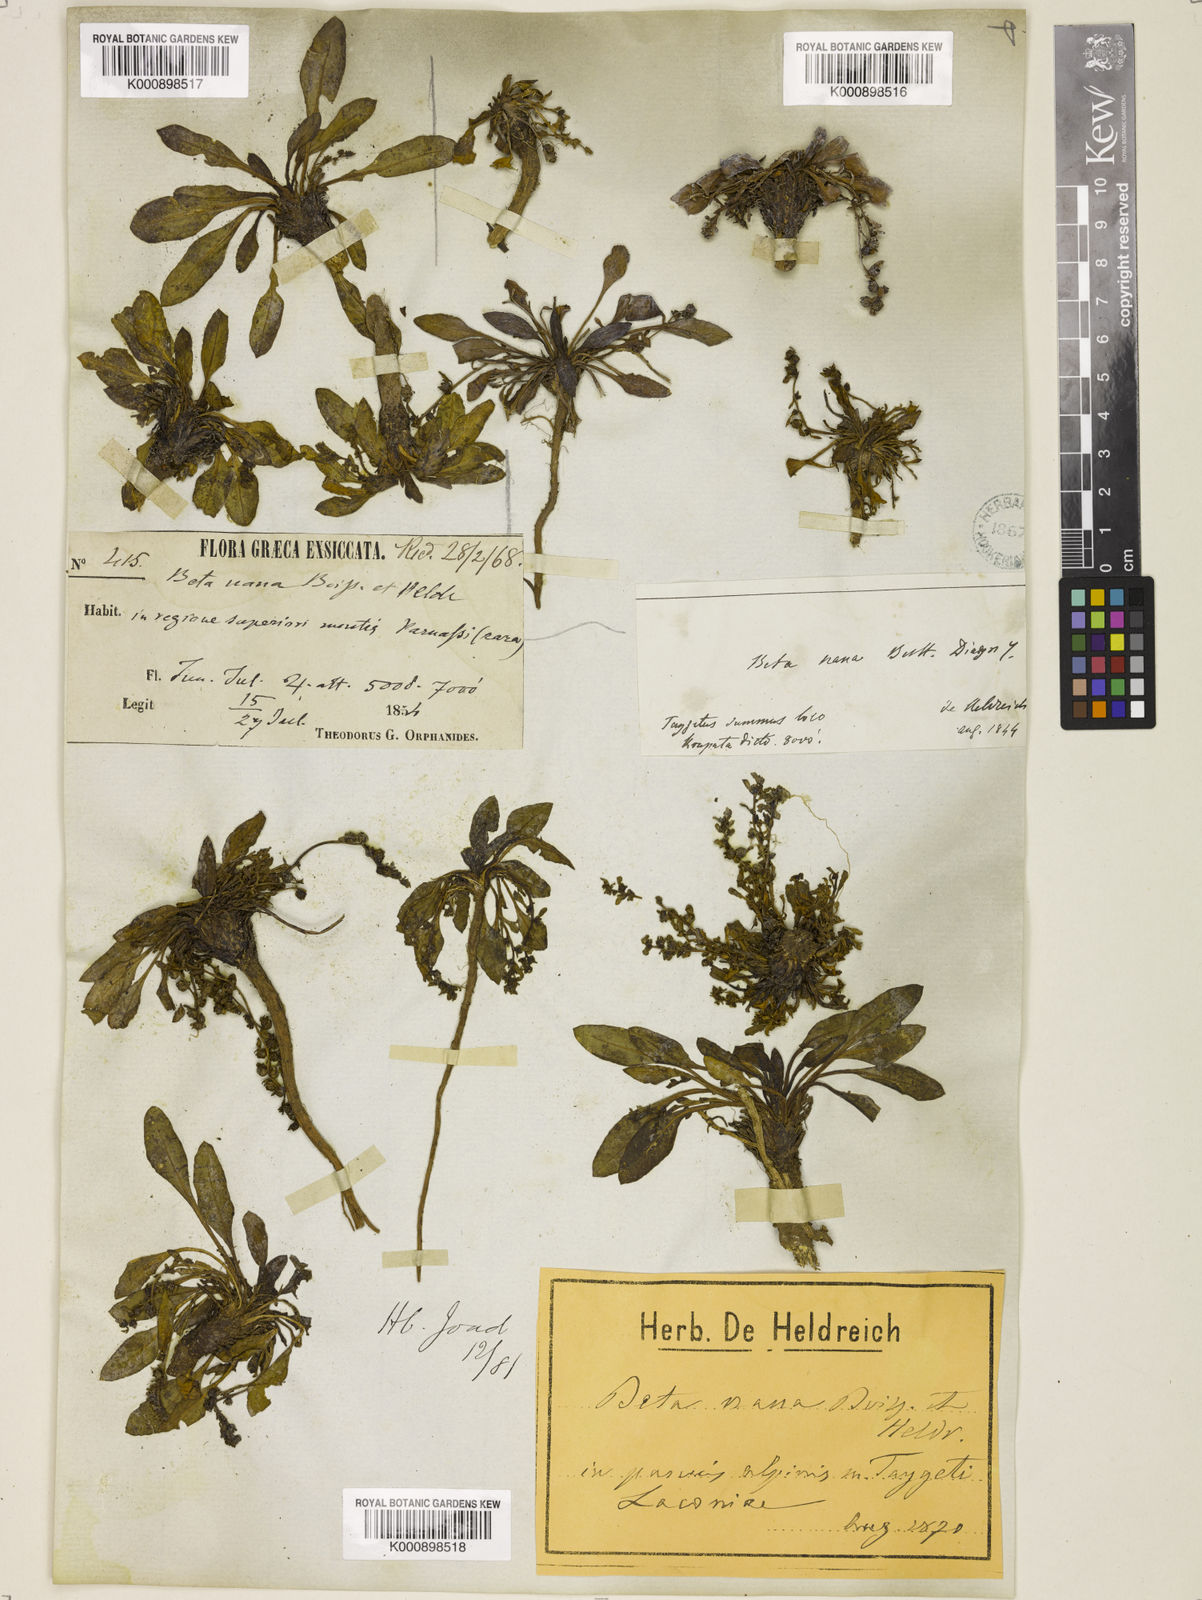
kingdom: Plantae
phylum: Tracheophyta
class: Magnoliopsida
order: Caryophyllales
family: Amaranthaceae
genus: Beta
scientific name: Beta nana
